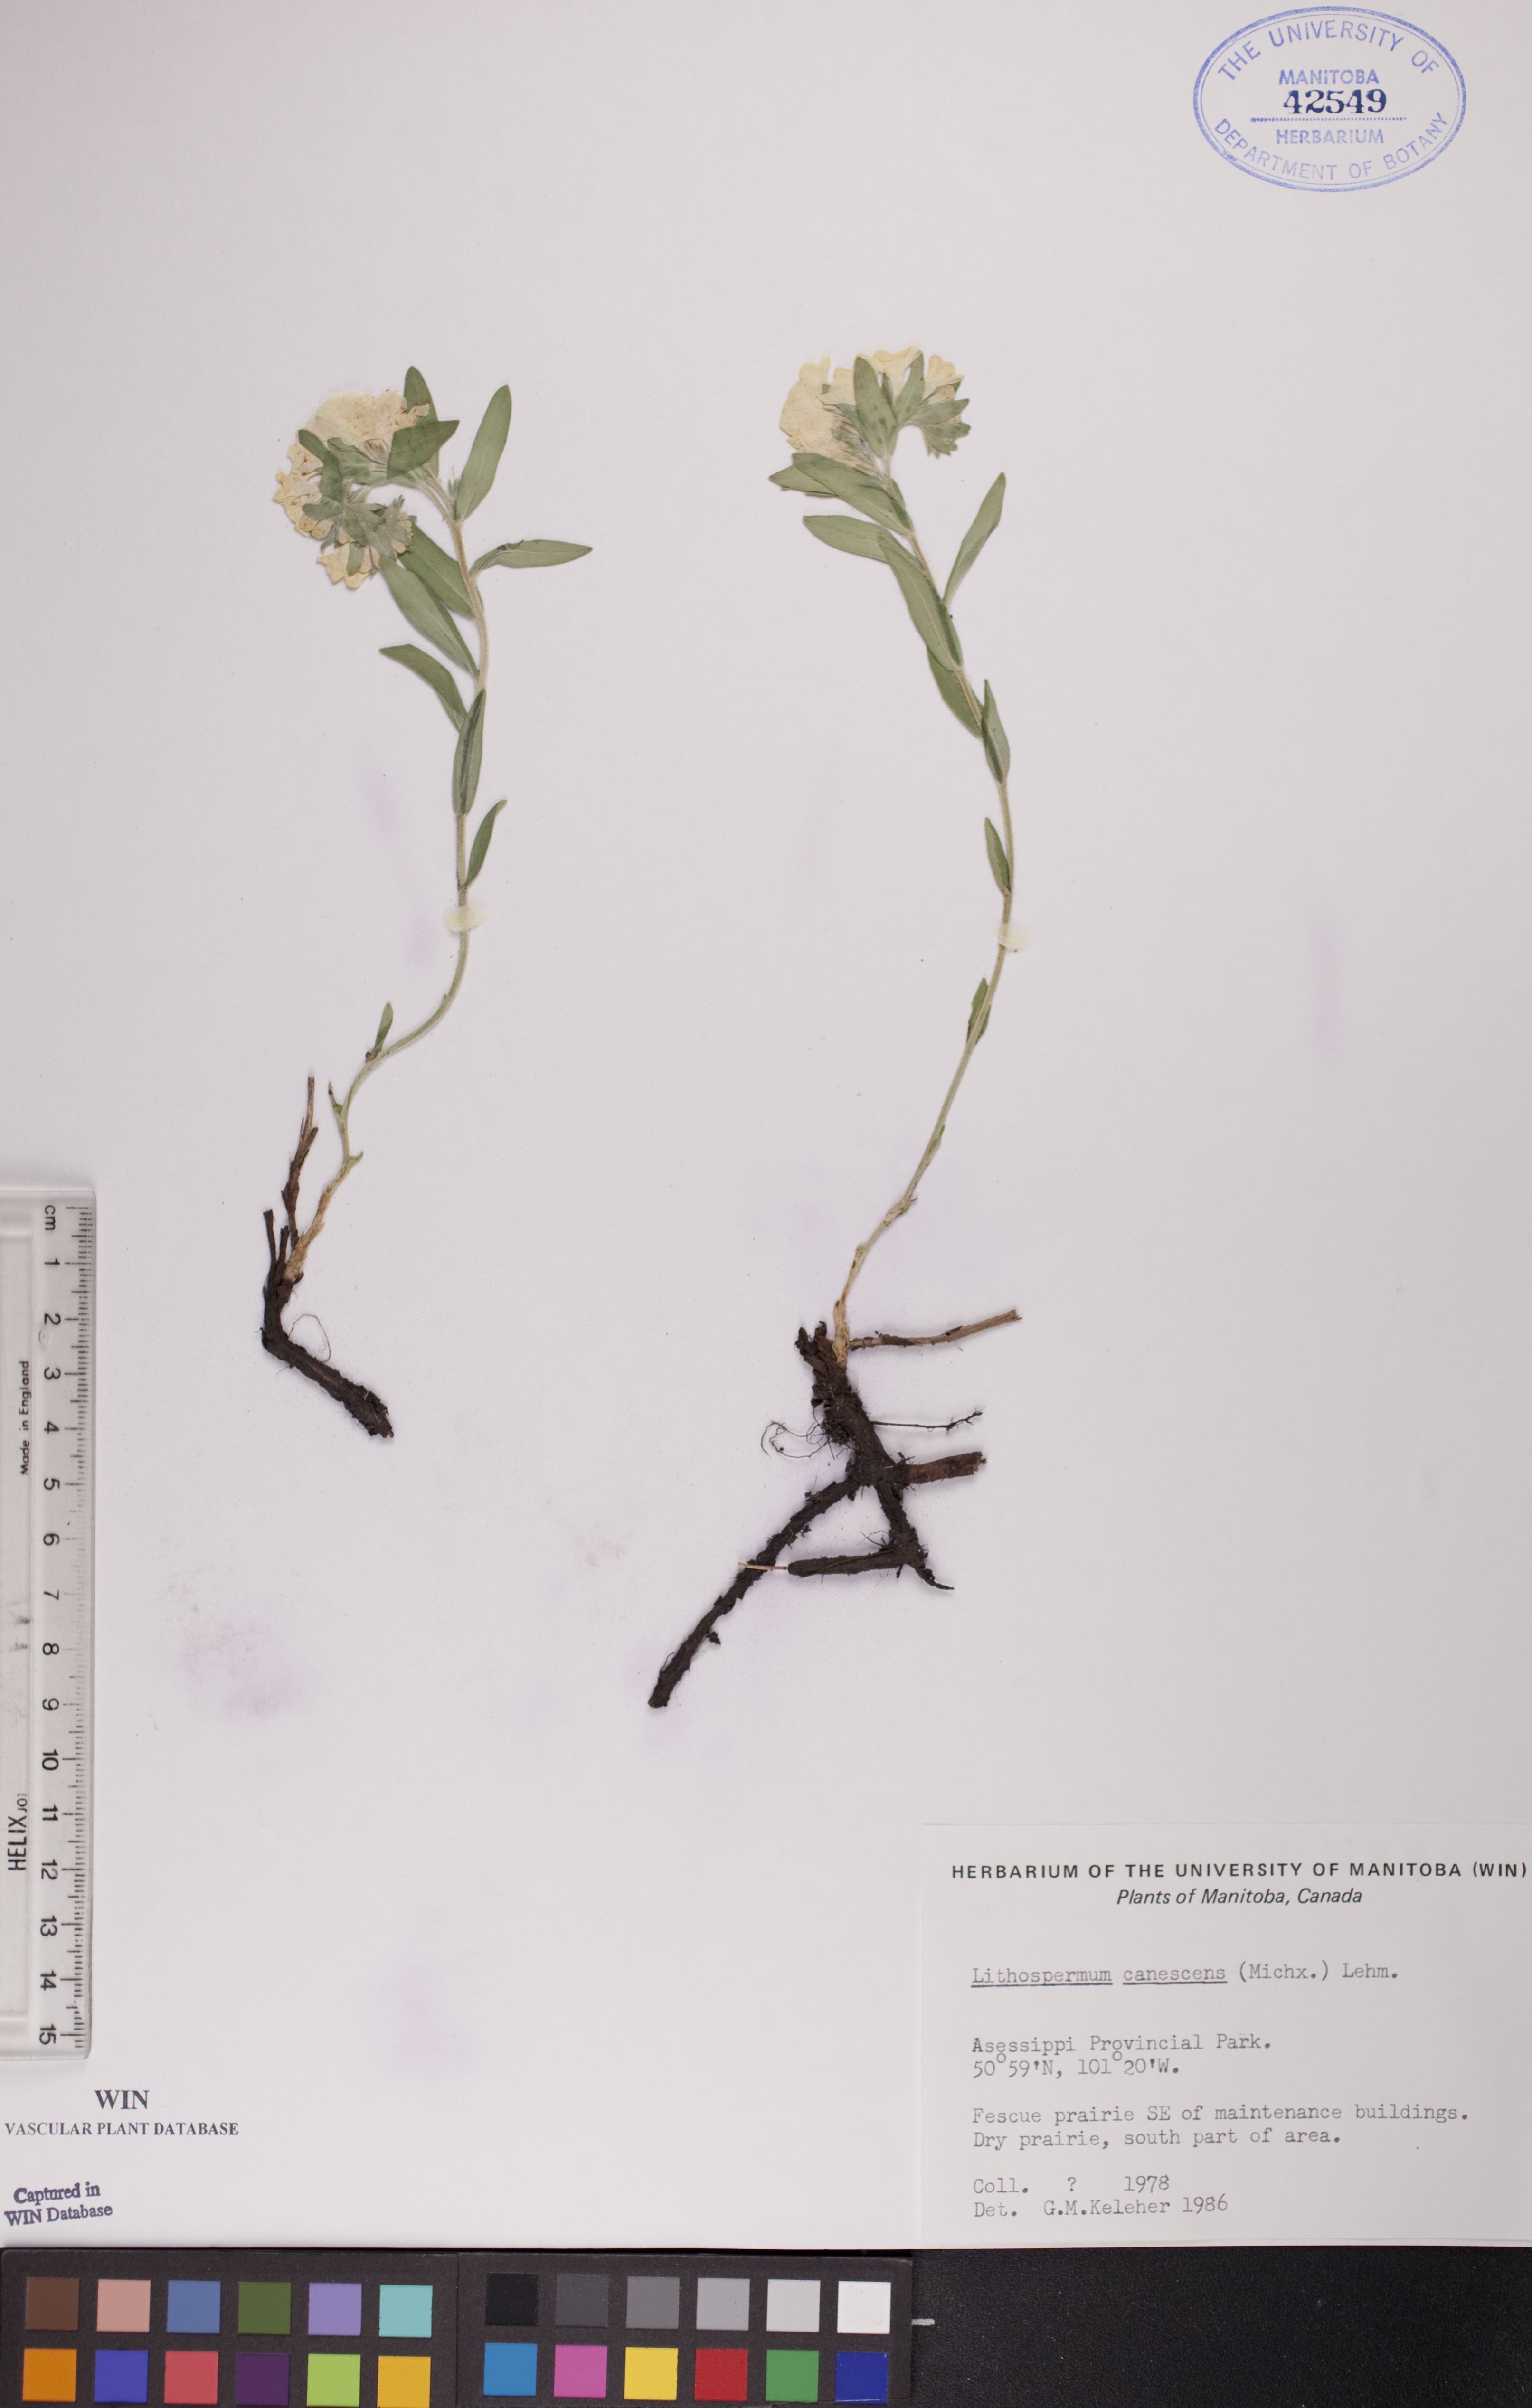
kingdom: Plantae
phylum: Tracheophyta
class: Magnoliopsida
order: Boraginales
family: Boraginaceae
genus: Lithospermum
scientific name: Lithospermum canescens
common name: Hoary puccoon
